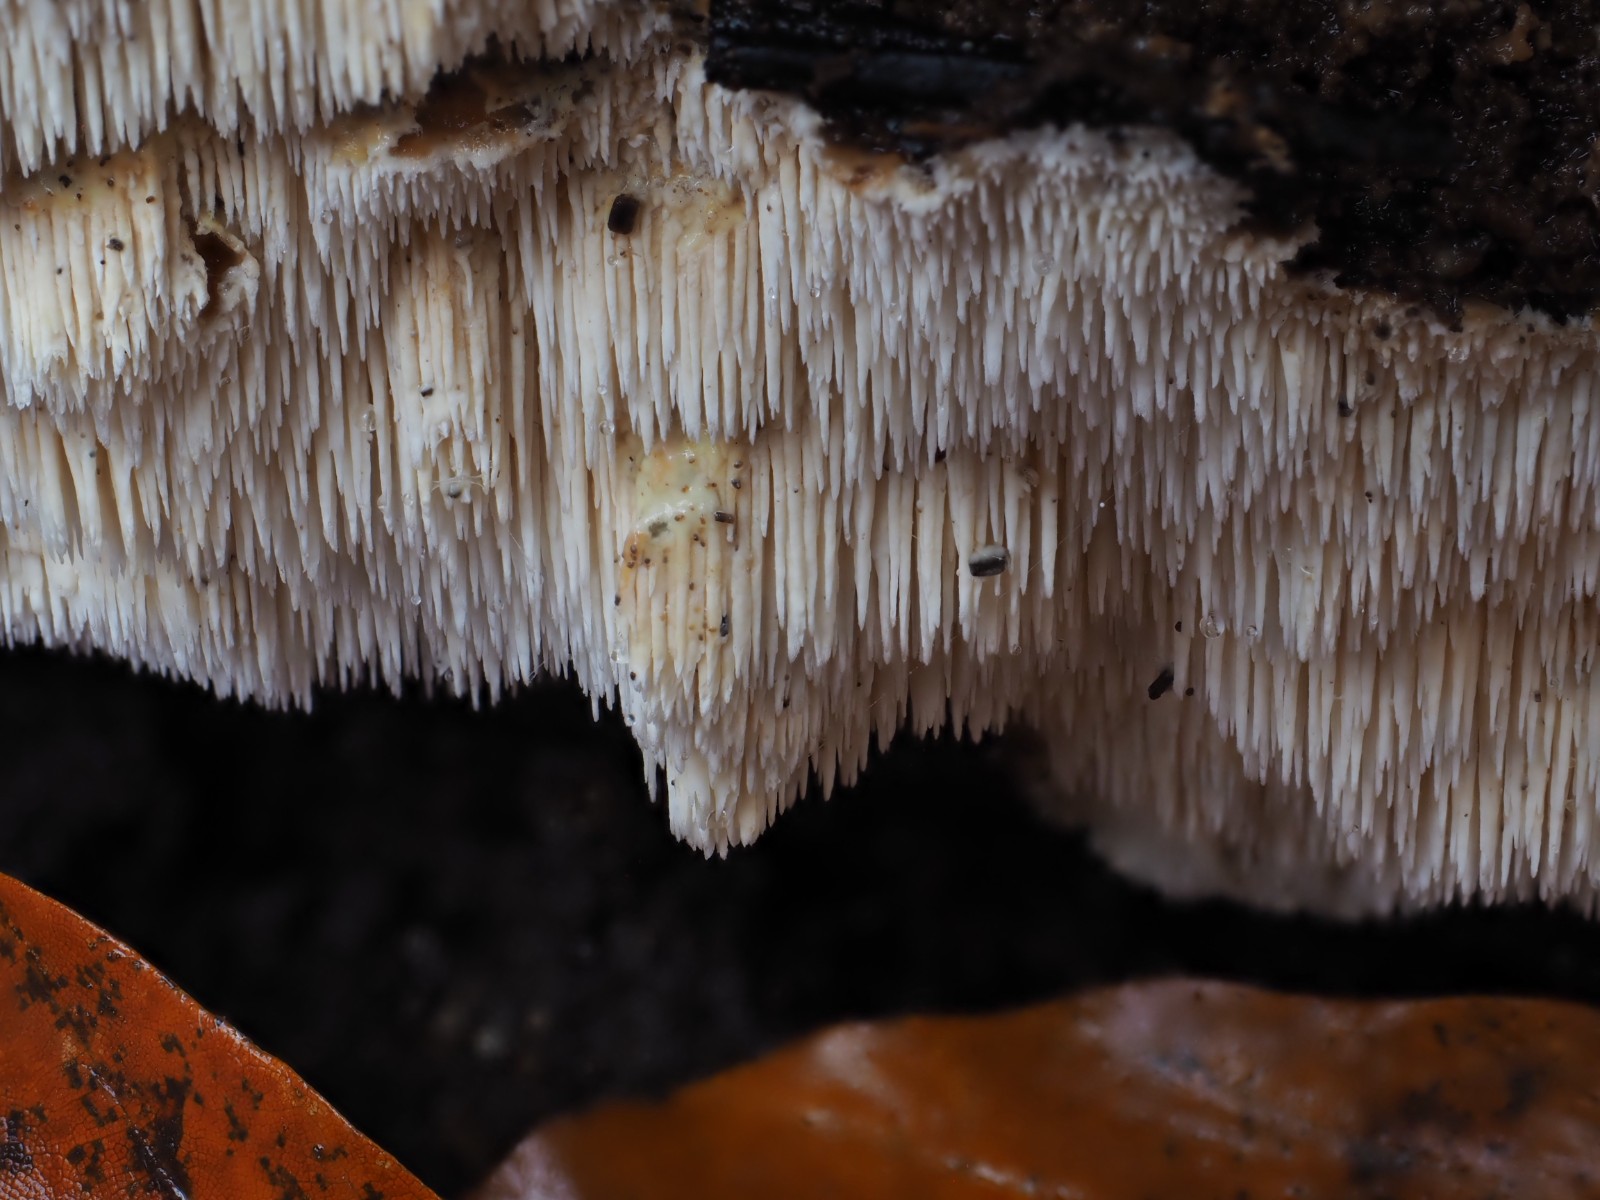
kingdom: Fungi
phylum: Basidiomycota
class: Agaricomycetes
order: Russulales
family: Hericiaceae
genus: Dentipellis
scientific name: Dentipellis fragilis
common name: pighud
